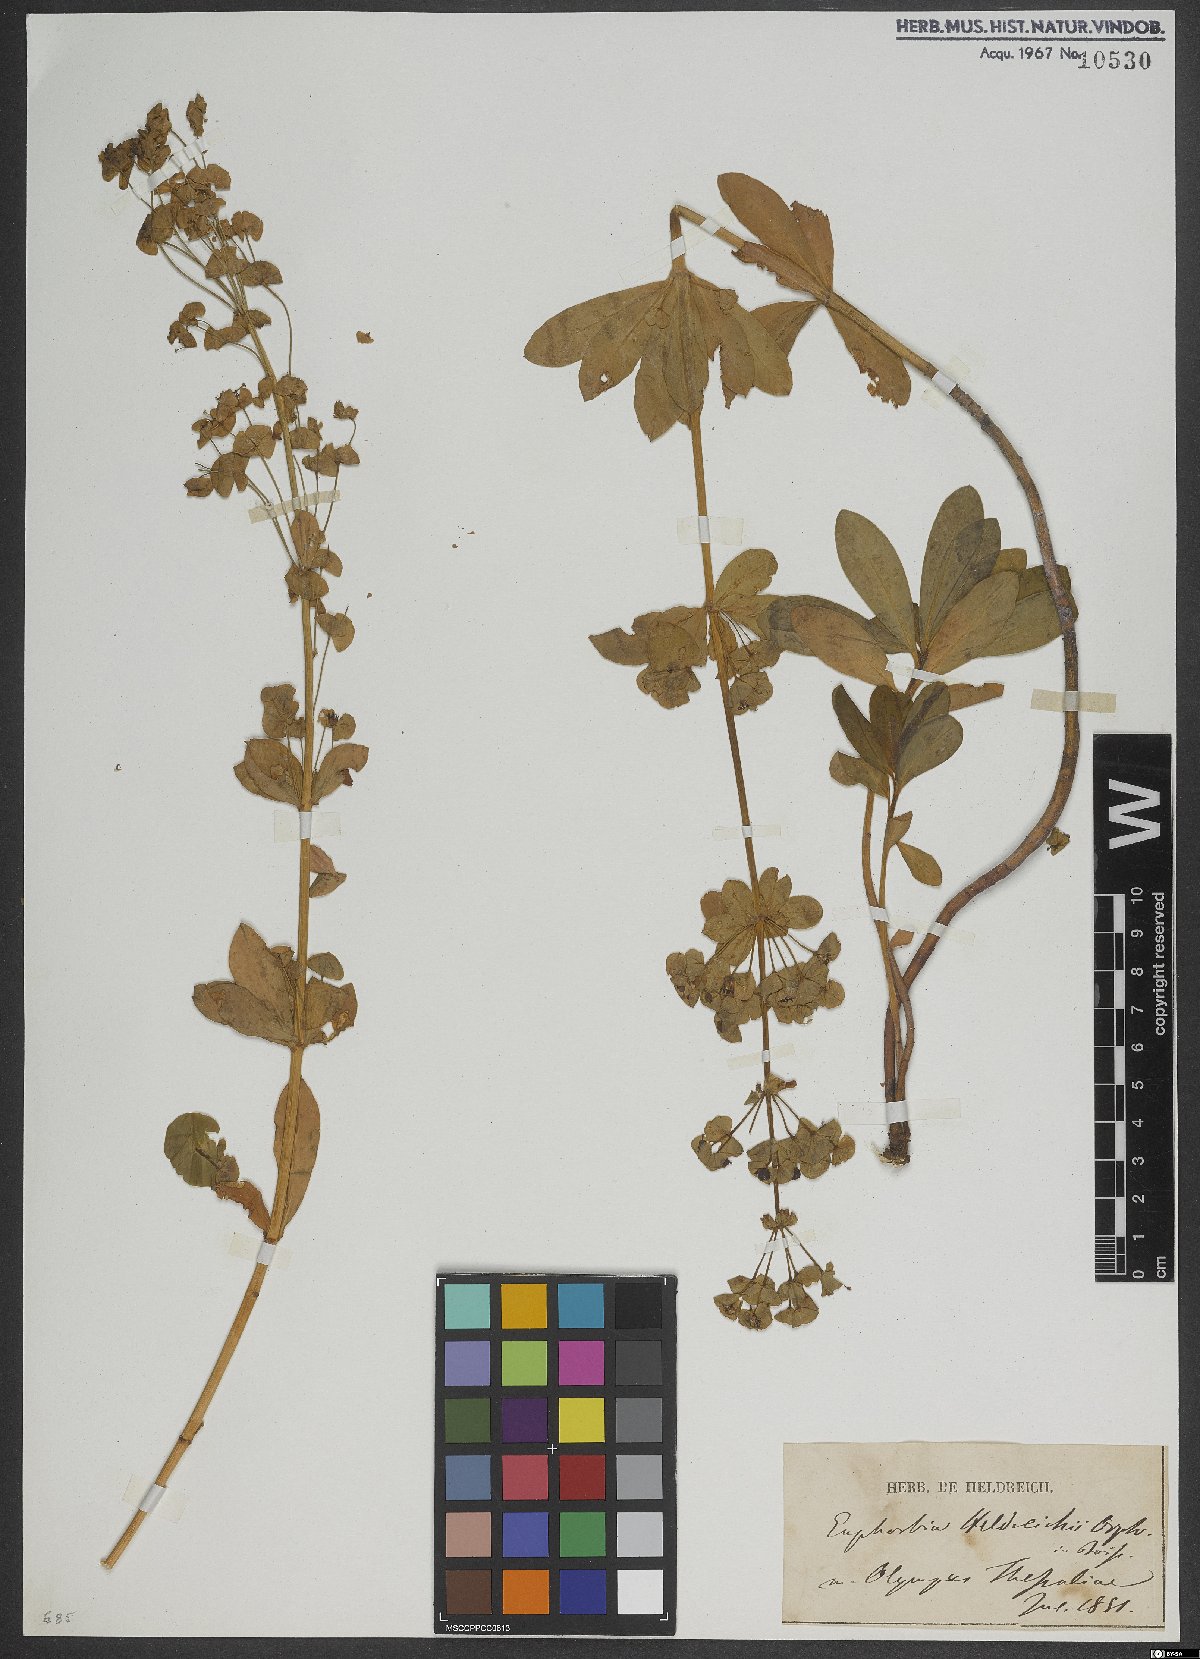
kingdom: Plantae
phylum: Tracheophyta
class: Magnoliopsida
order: Malpighiales
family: Euphorbiaceae
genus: Euphorbia
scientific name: Euphorbia heldreichii
